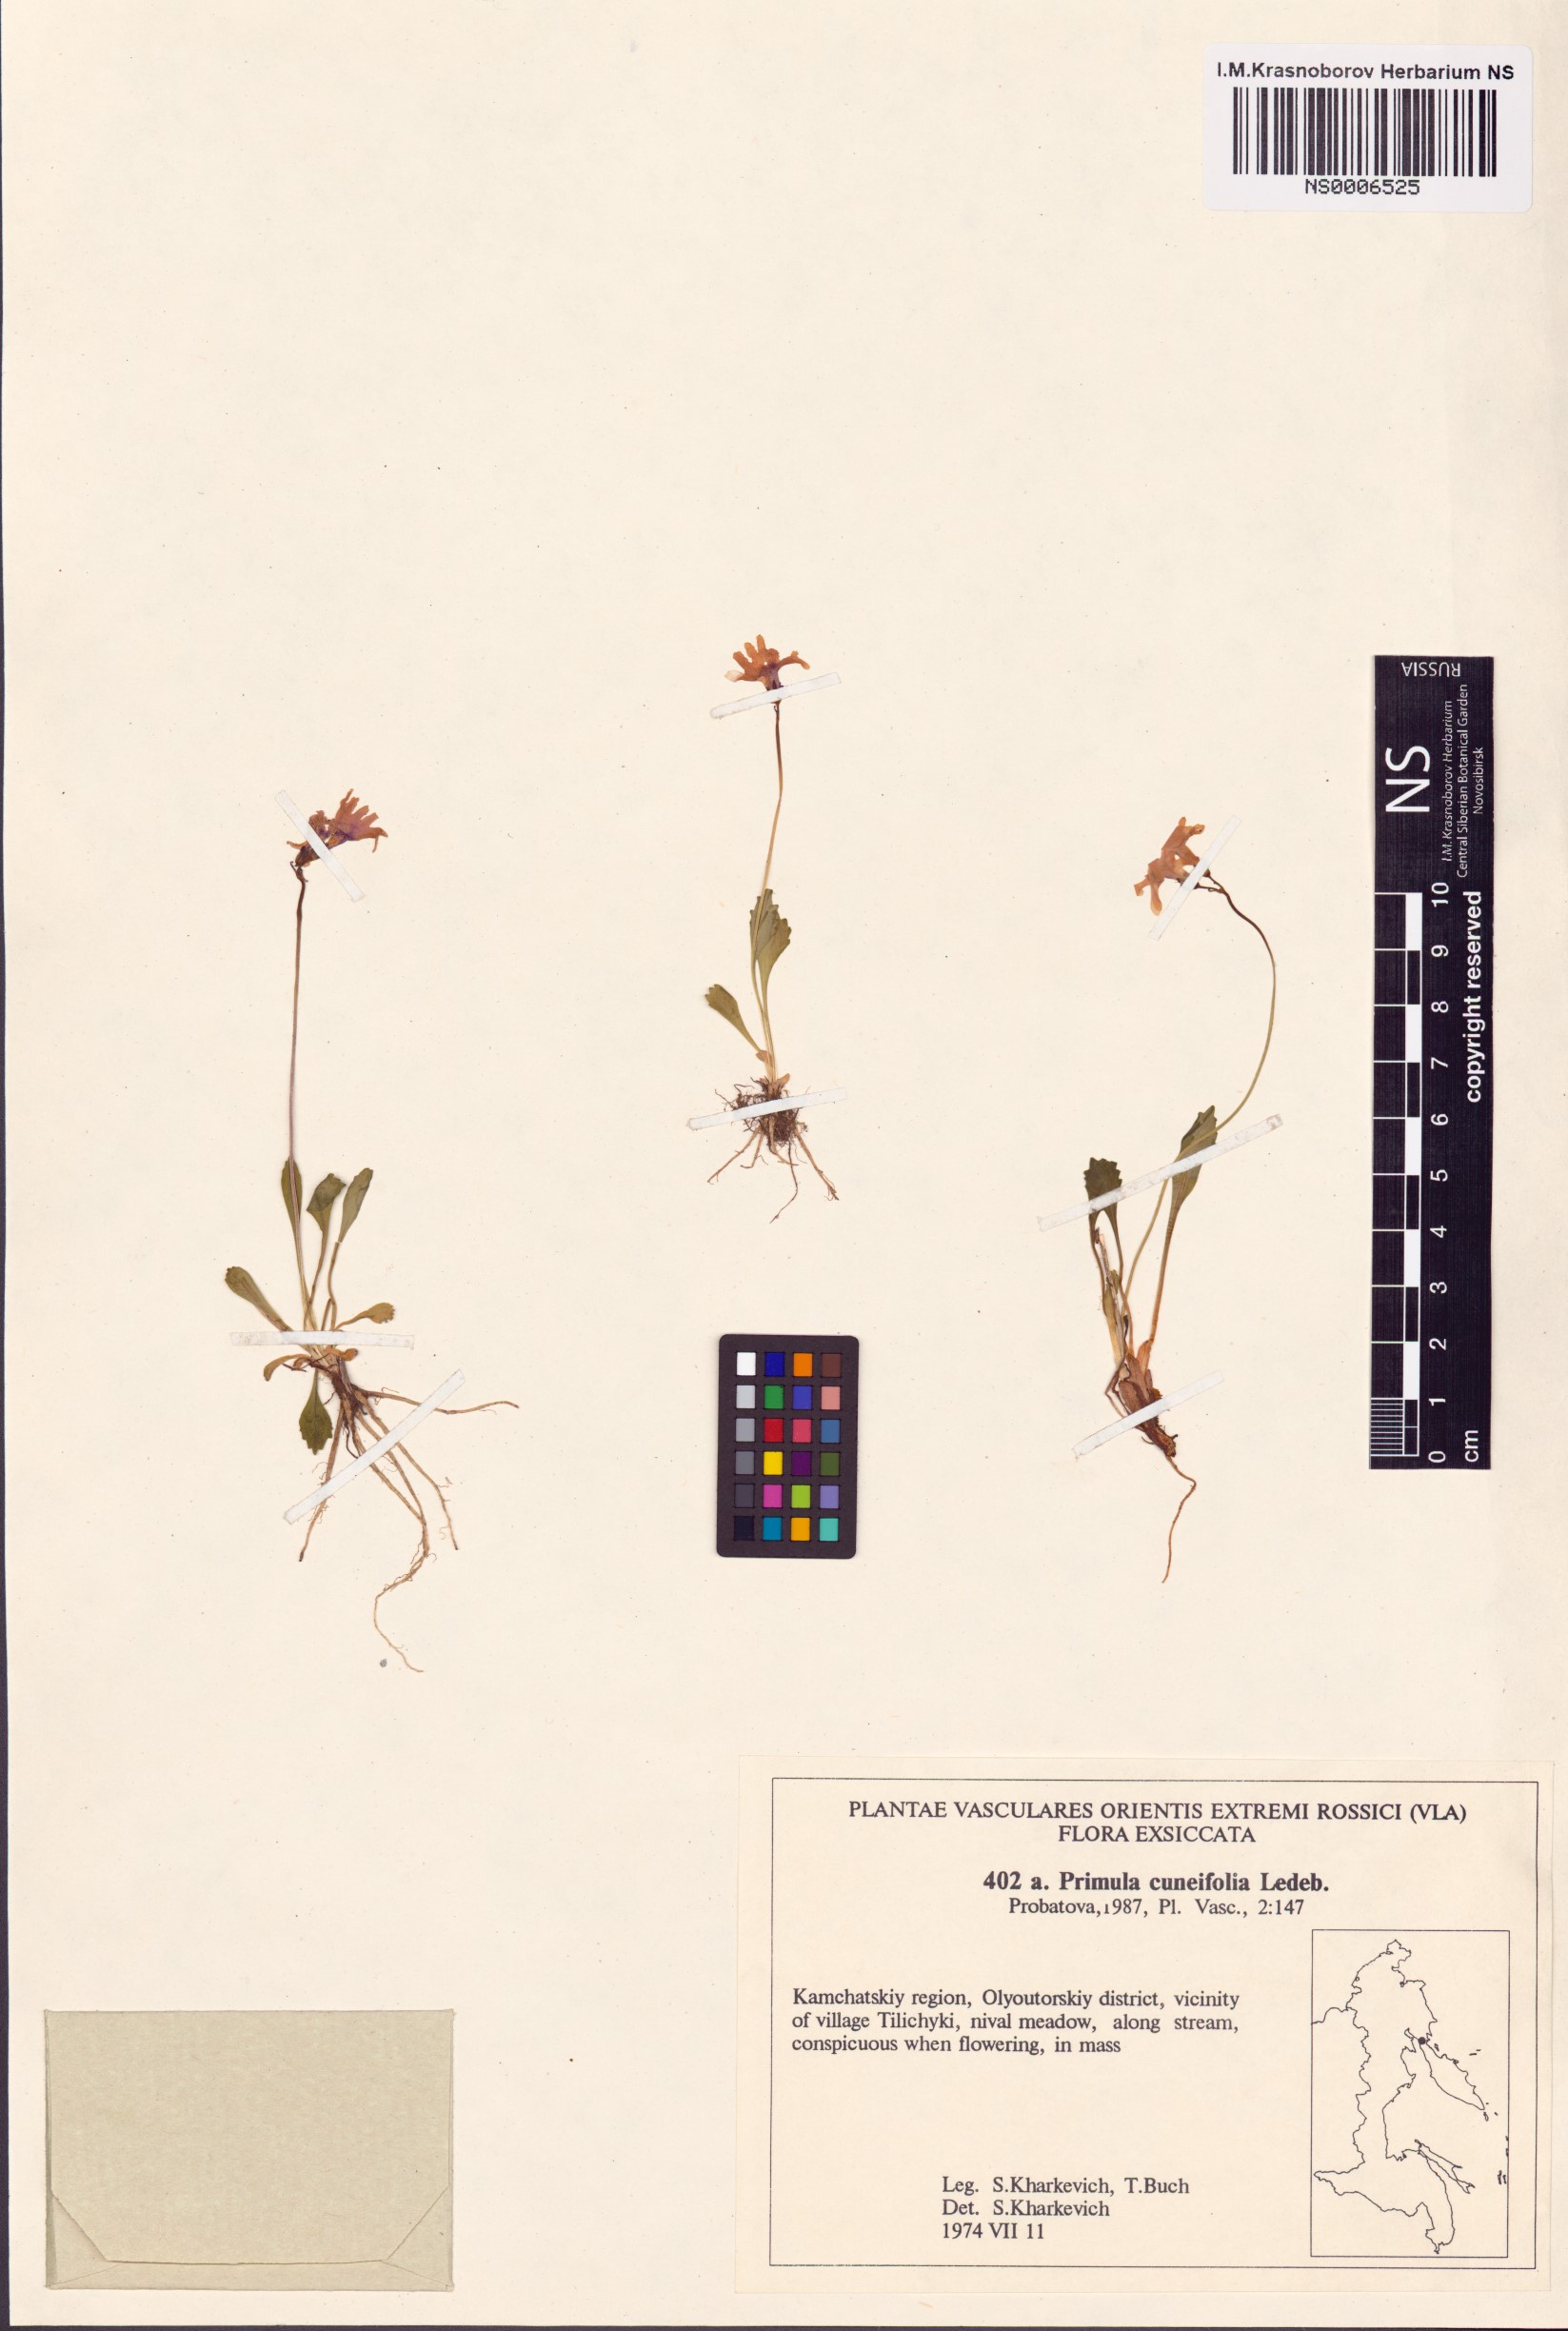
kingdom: Plantae
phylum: Tracheophyta
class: Magnoliopsida
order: Ericales
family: Primulaceae
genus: Primula
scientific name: Primula cuneifolia
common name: Wedge-leaved primrose
